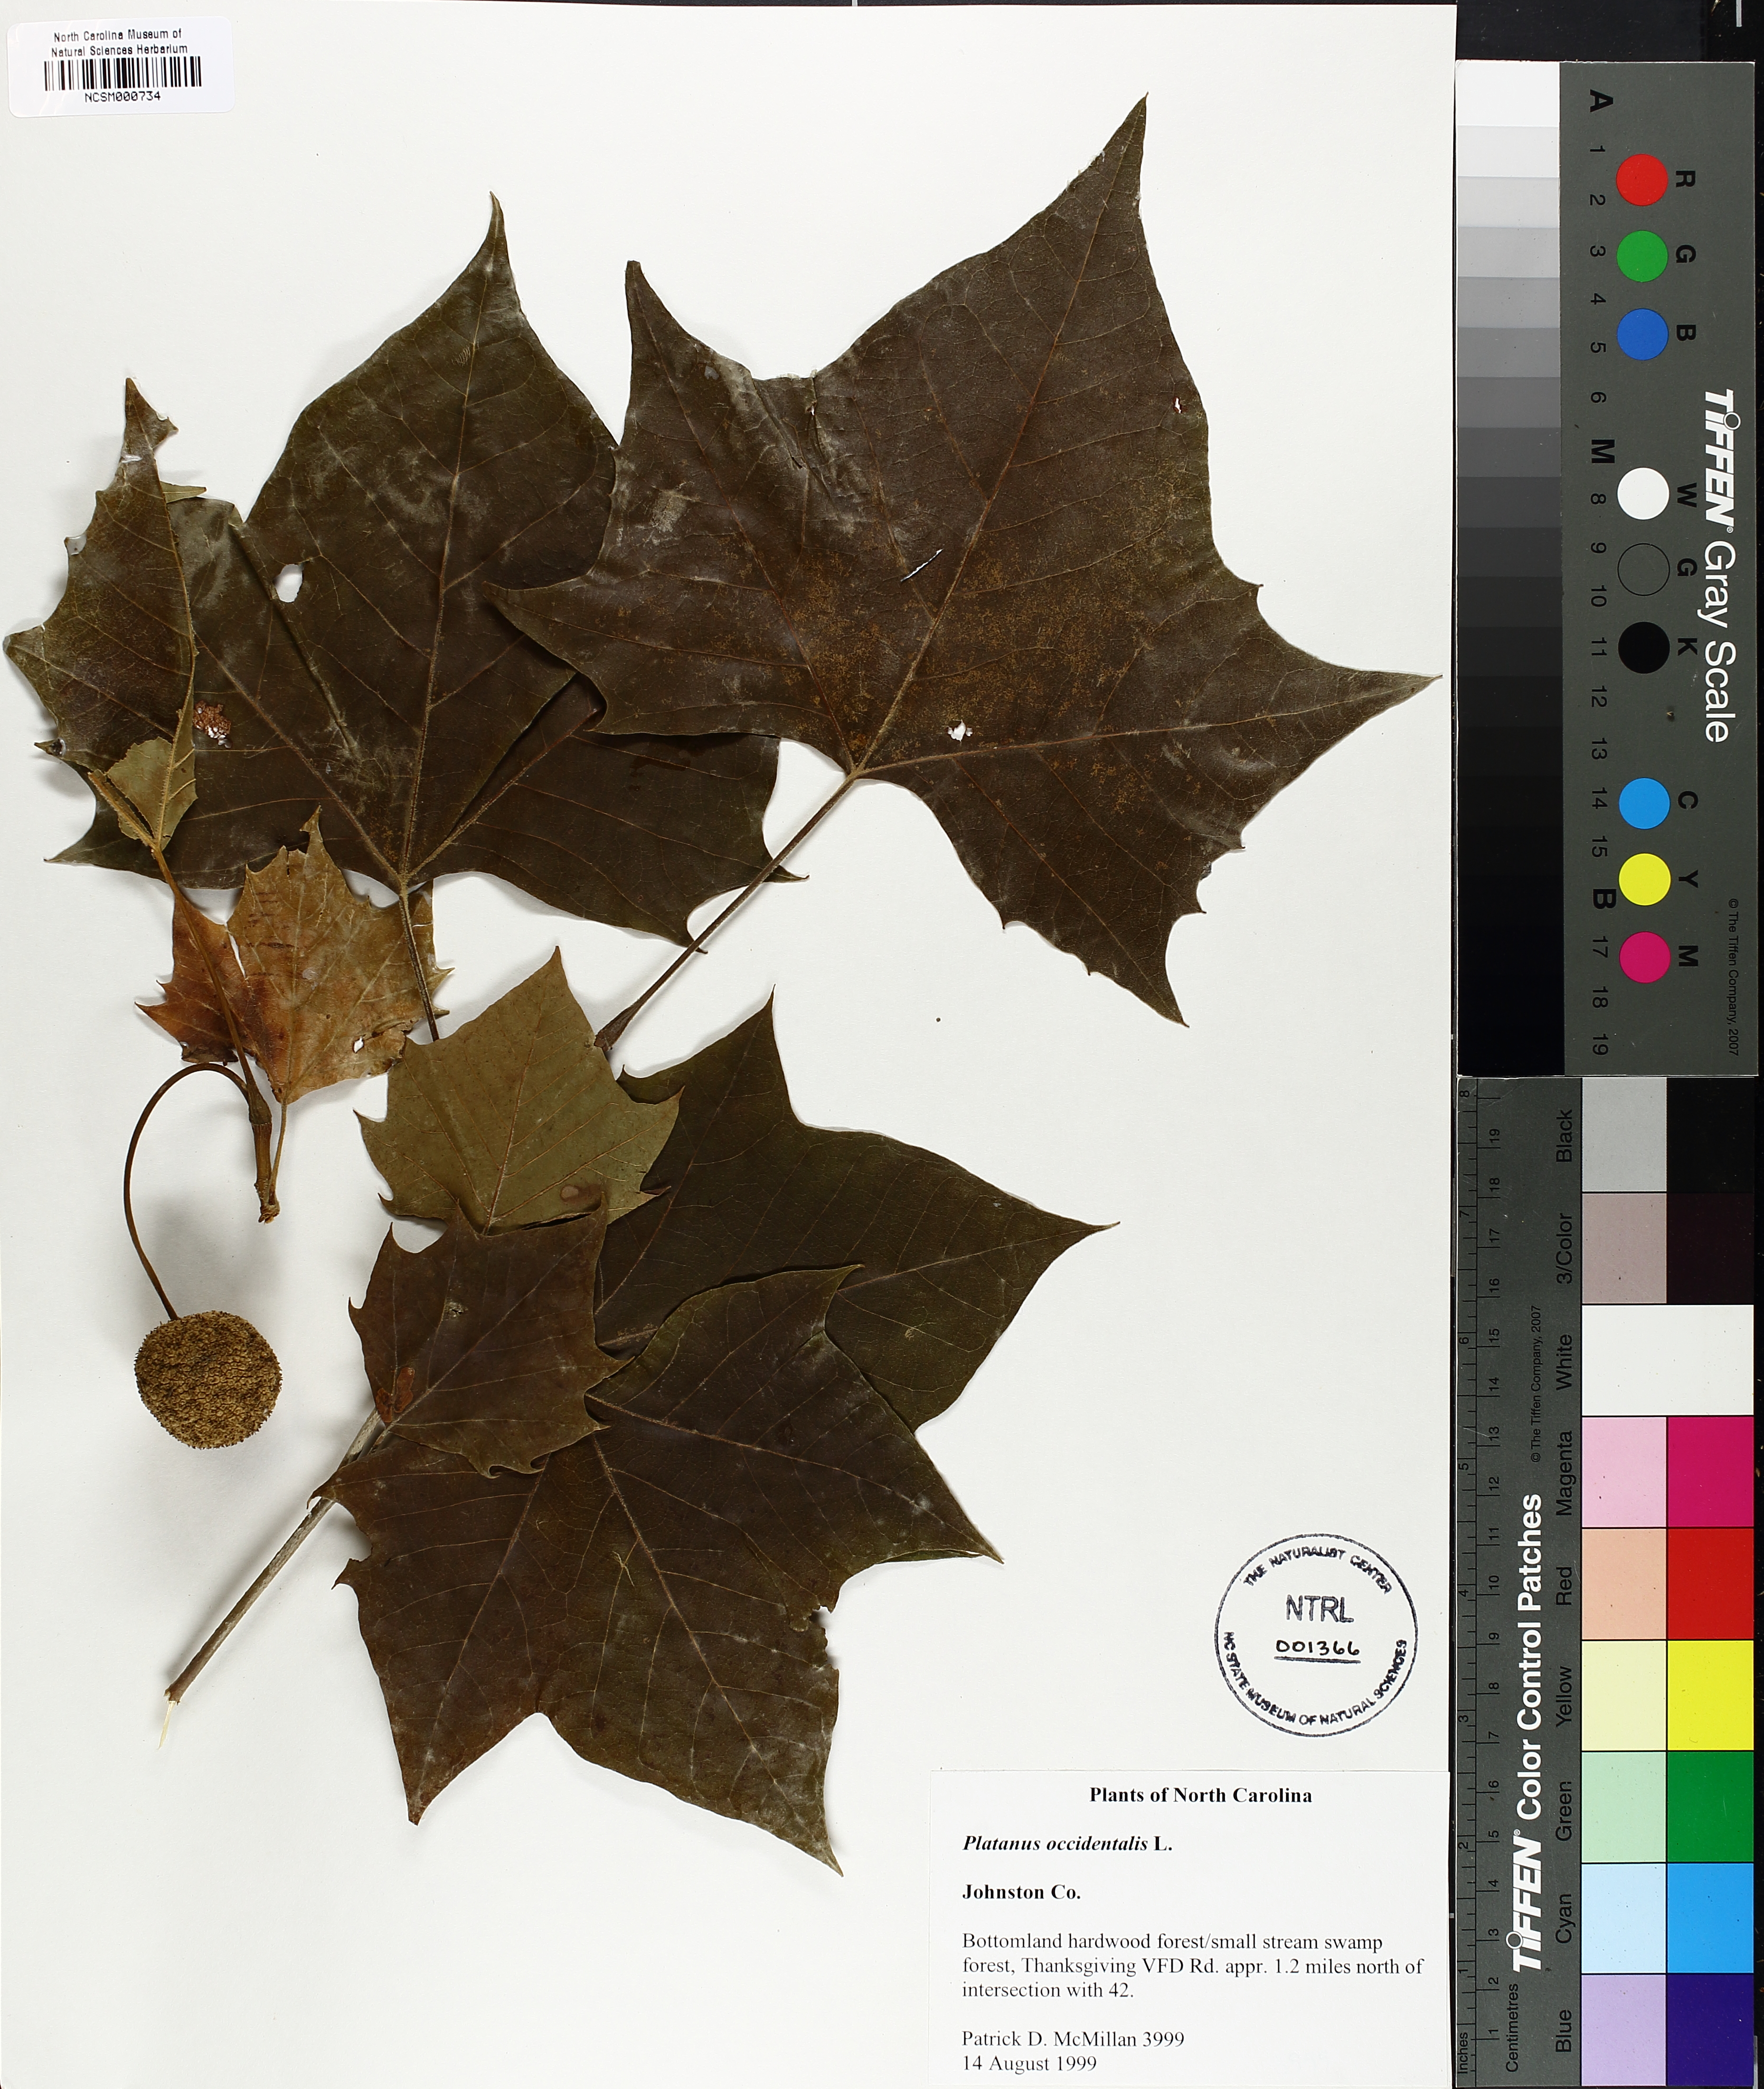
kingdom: Plantae
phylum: Tracheophyta
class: Magnoliopsida
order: Proteales
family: Platanaceae
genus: Platanus
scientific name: Platanus occidentalis
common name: American sycamore
